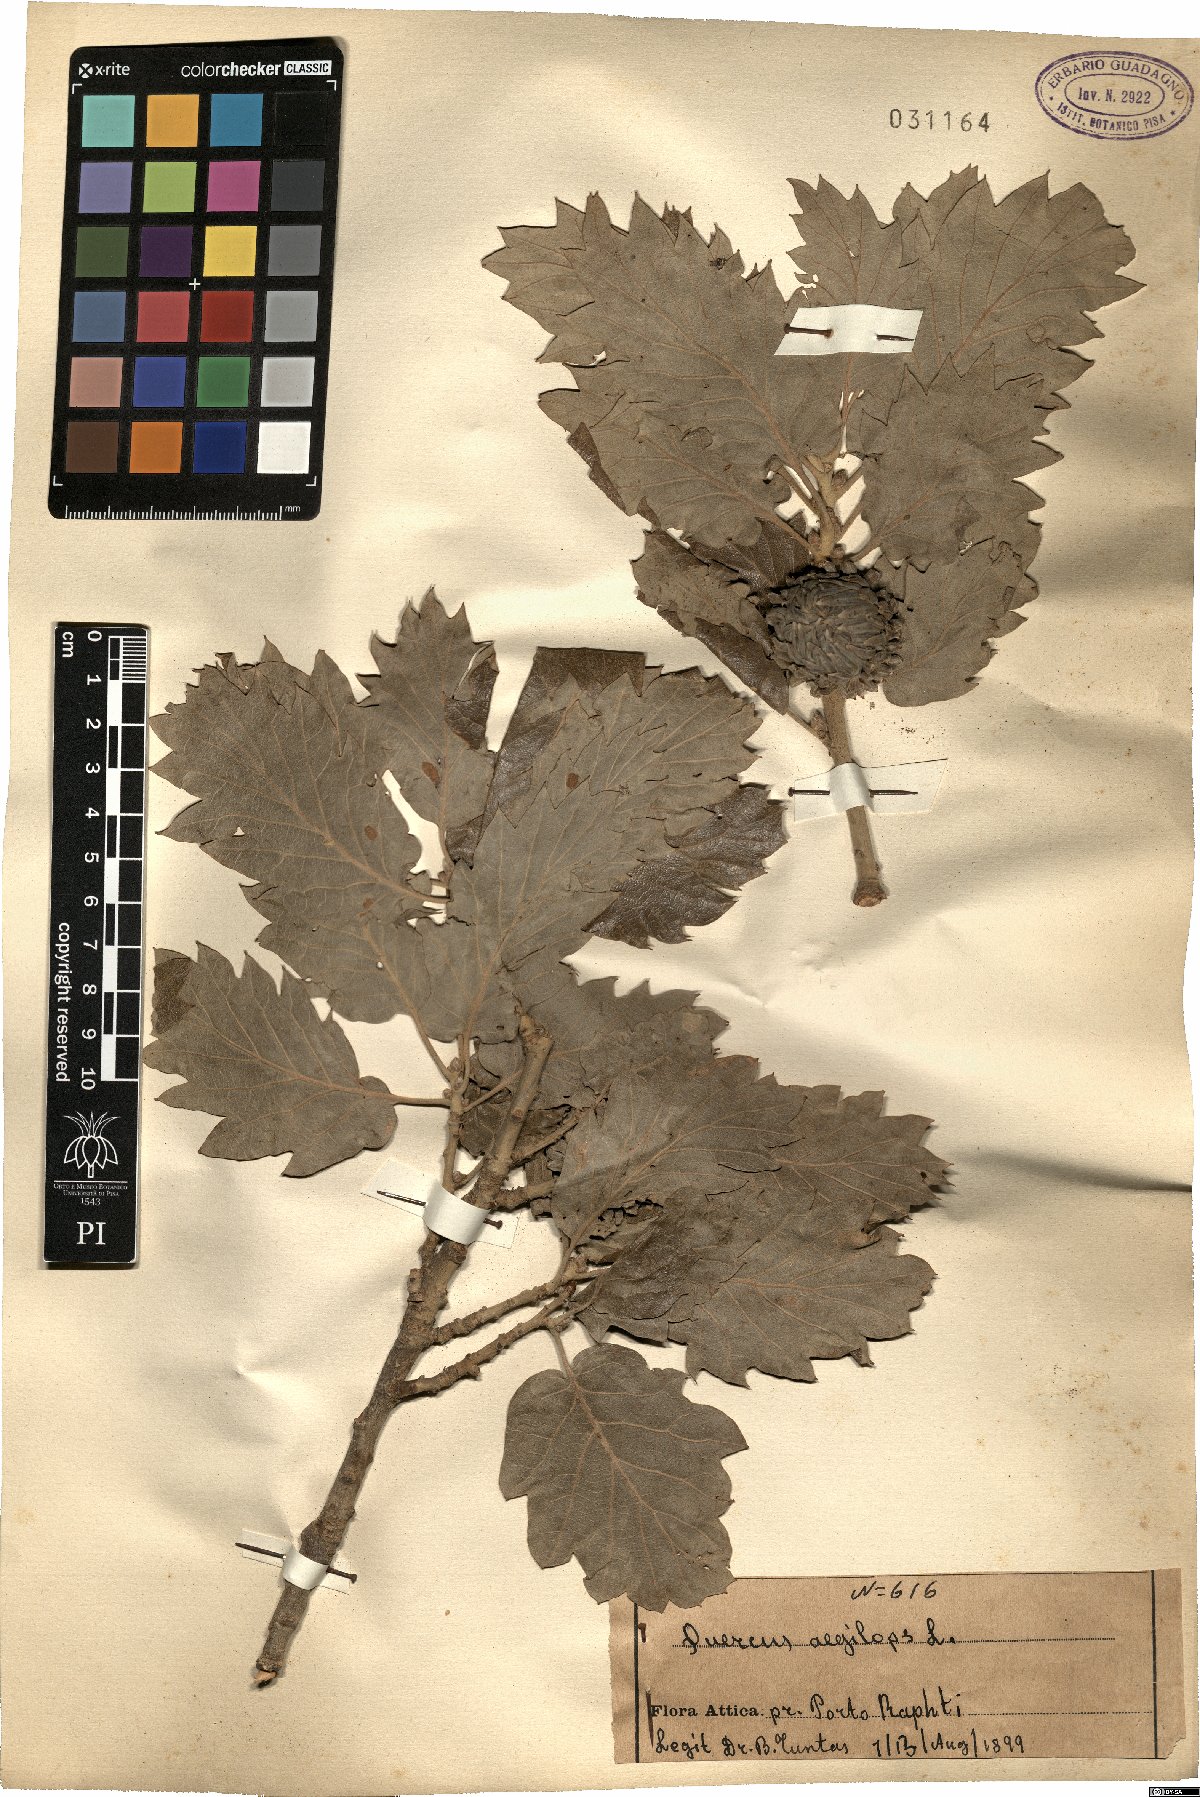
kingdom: Plantae
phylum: Tracheophyta
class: Magnoliopsida
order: Fagales
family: Fagaceae
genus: Quercus
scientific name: Quercus ithaburensis
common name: Tabor oak
